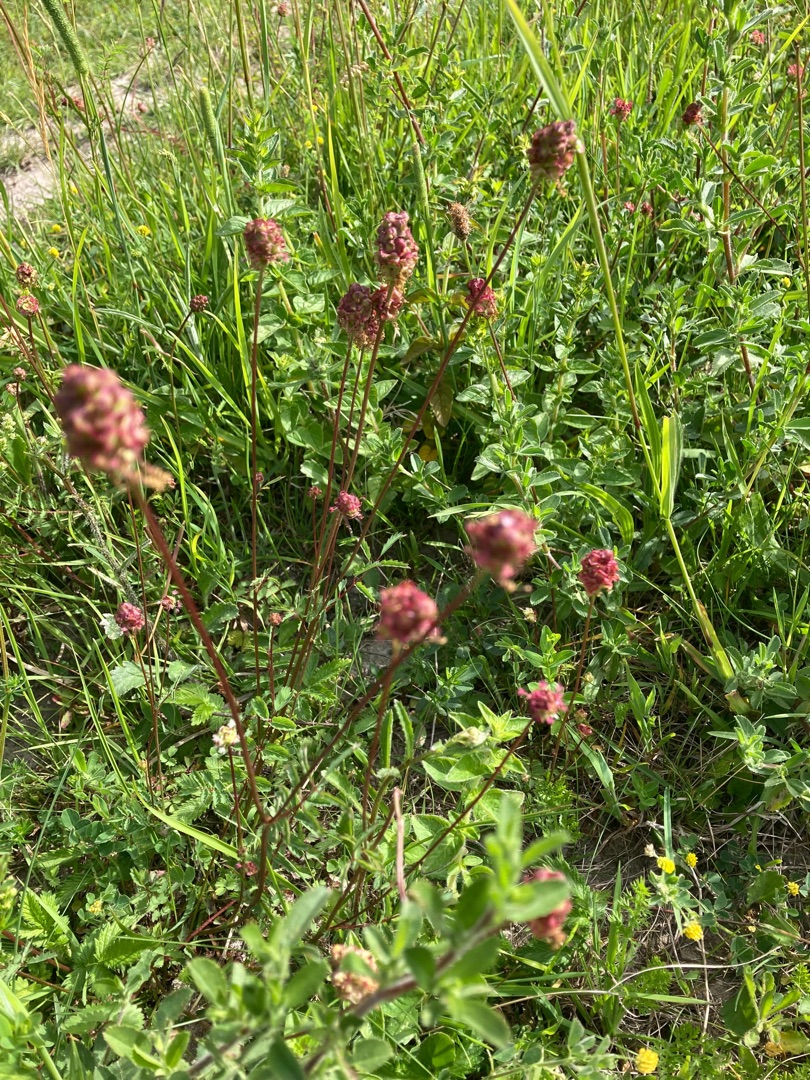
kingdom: Plantae
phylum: Tracheophyta
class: Magnoliopsida
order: Rosales
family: Rosaceae
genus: Poterium
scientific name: Poterium sanguisorba
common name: Bibernelle
